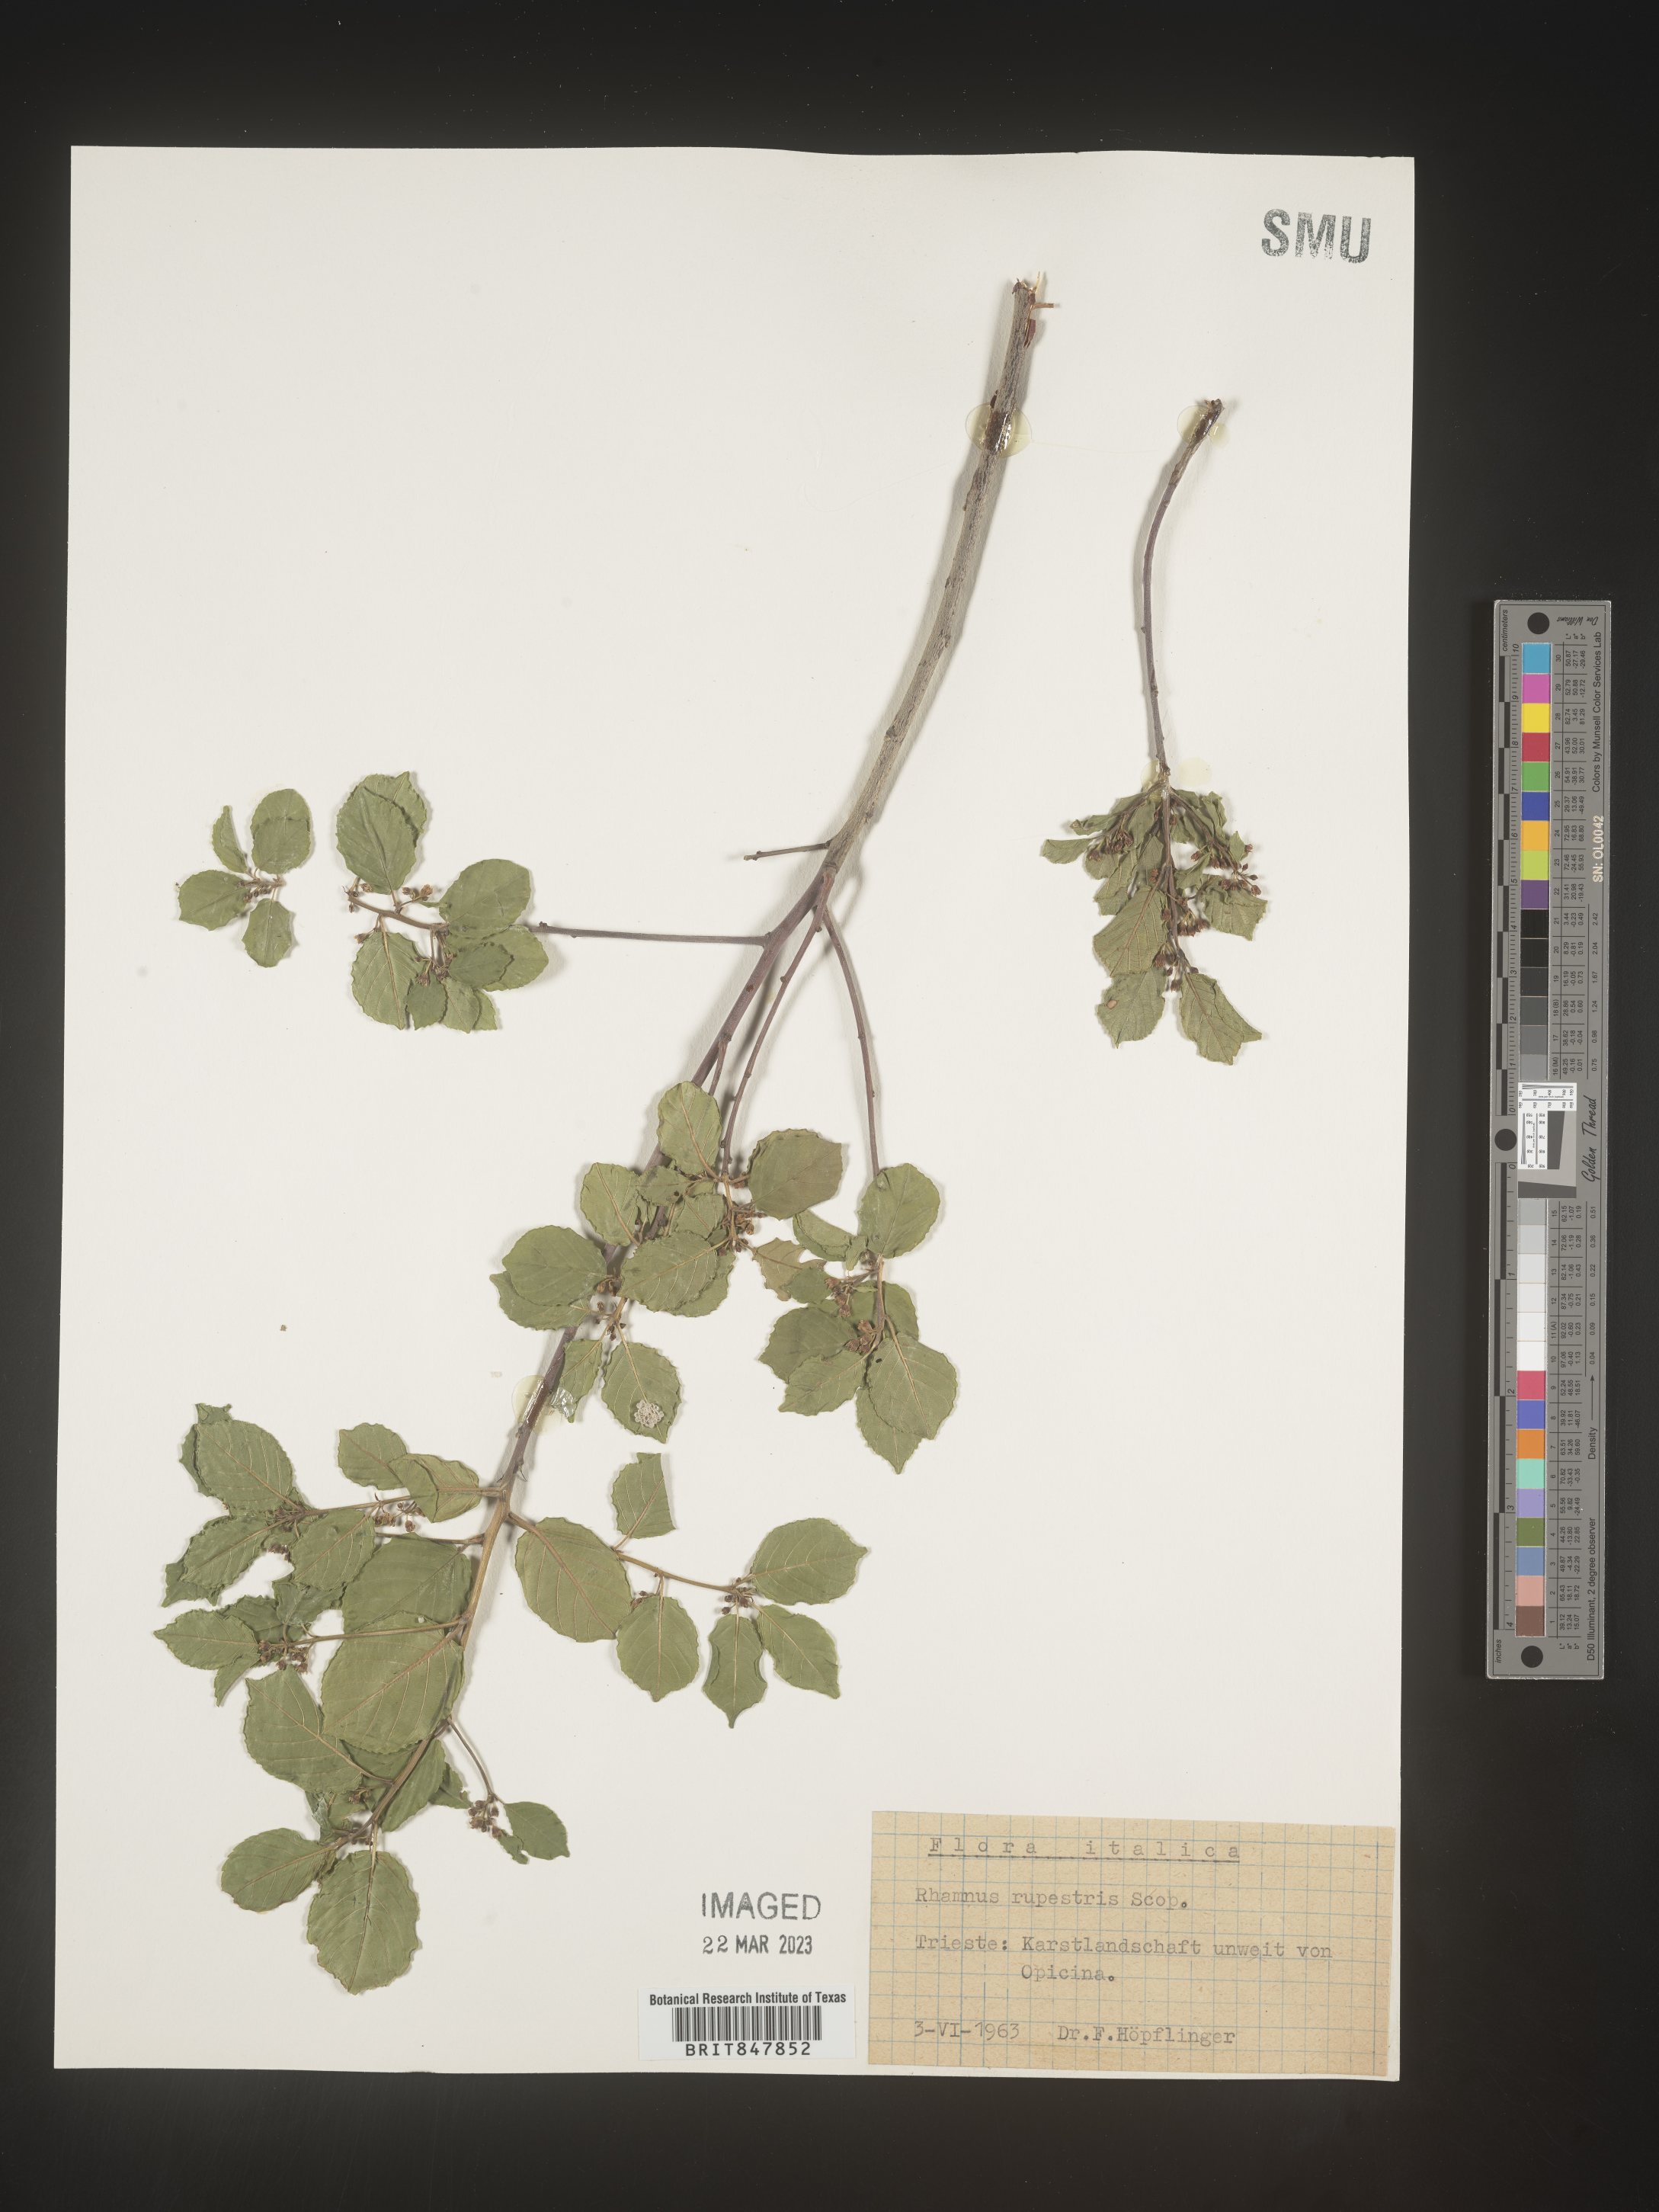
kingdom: Plantae
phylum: Tracheophyta
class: Magnoliopsida
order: Rosales
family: Rhamnaceae
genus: Rhamnus
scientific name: Rhamnus
